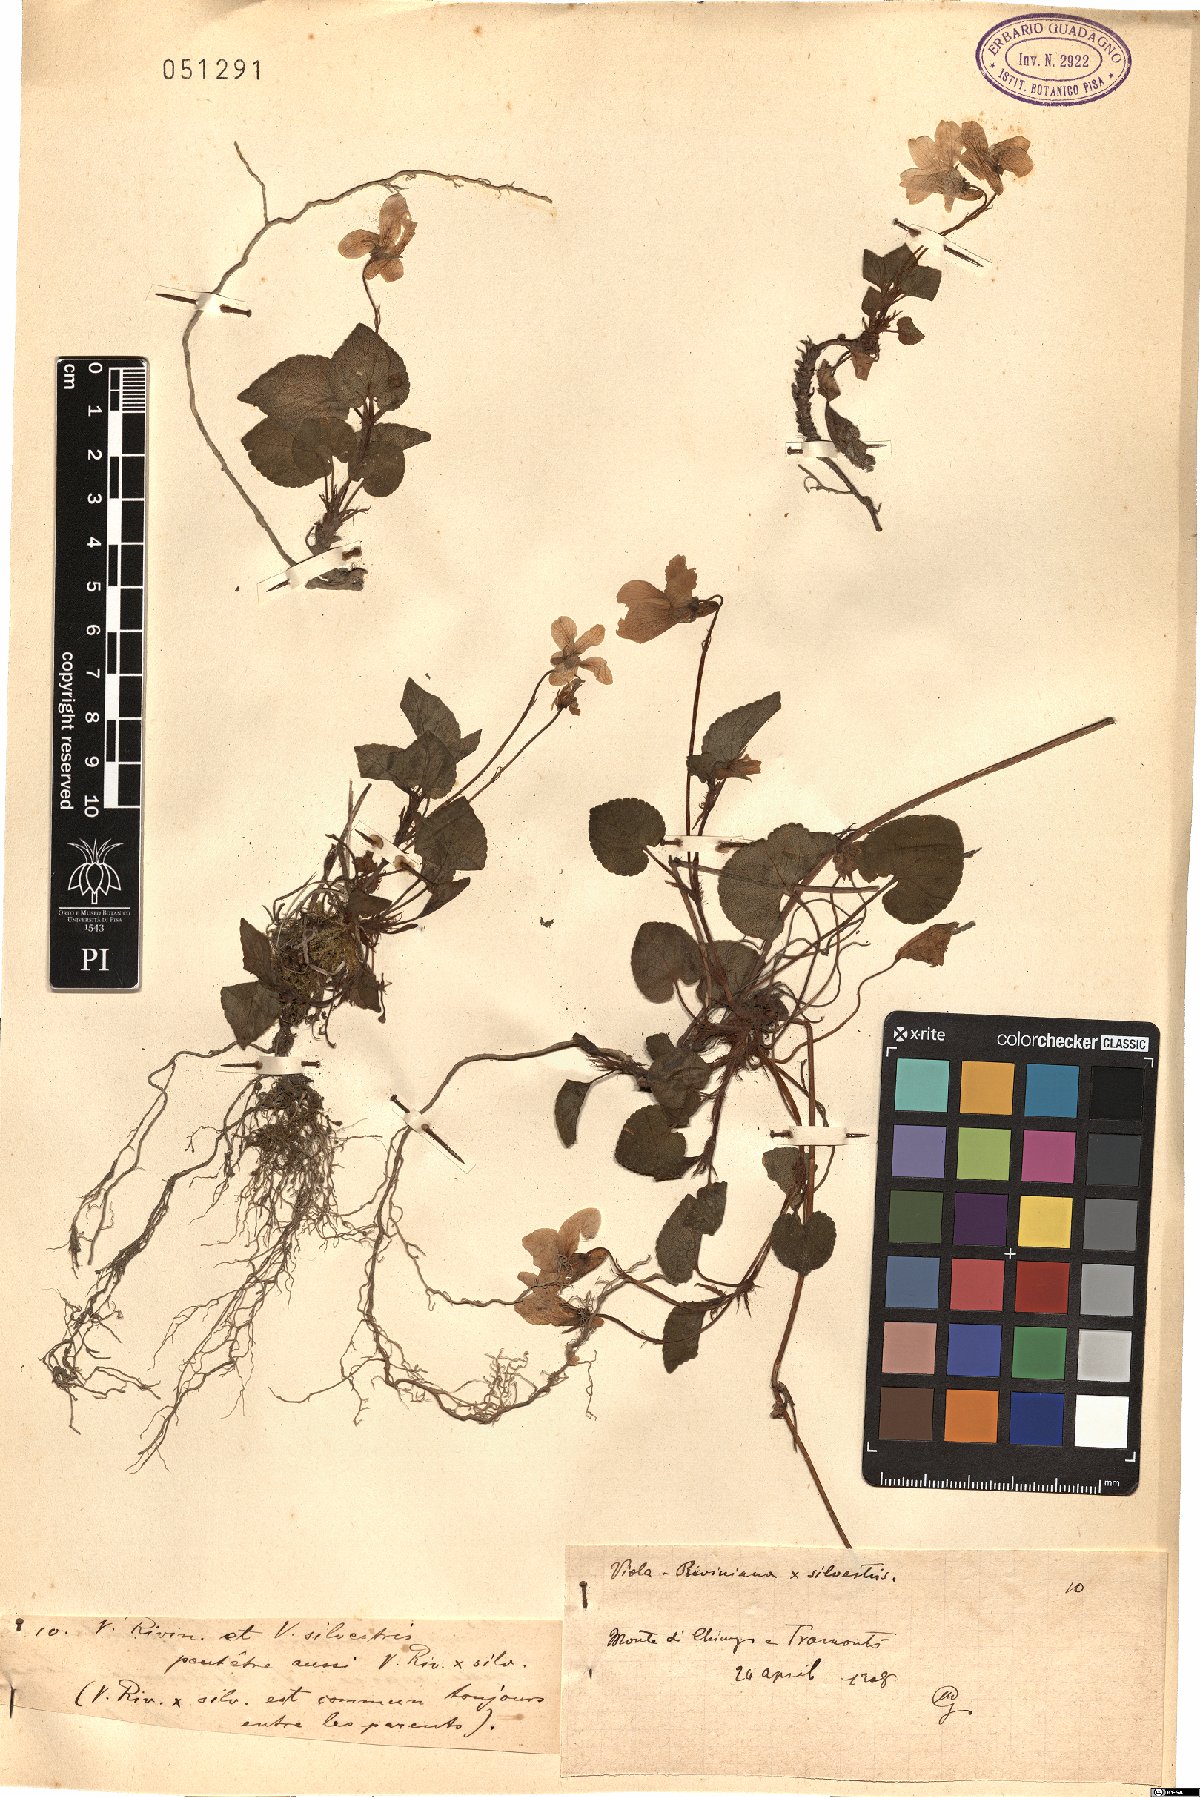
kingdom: Plantae
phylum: Tracheophyta
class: Magnoliopsida
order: Malpighiales
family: Violaceae
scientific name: Violaceae
